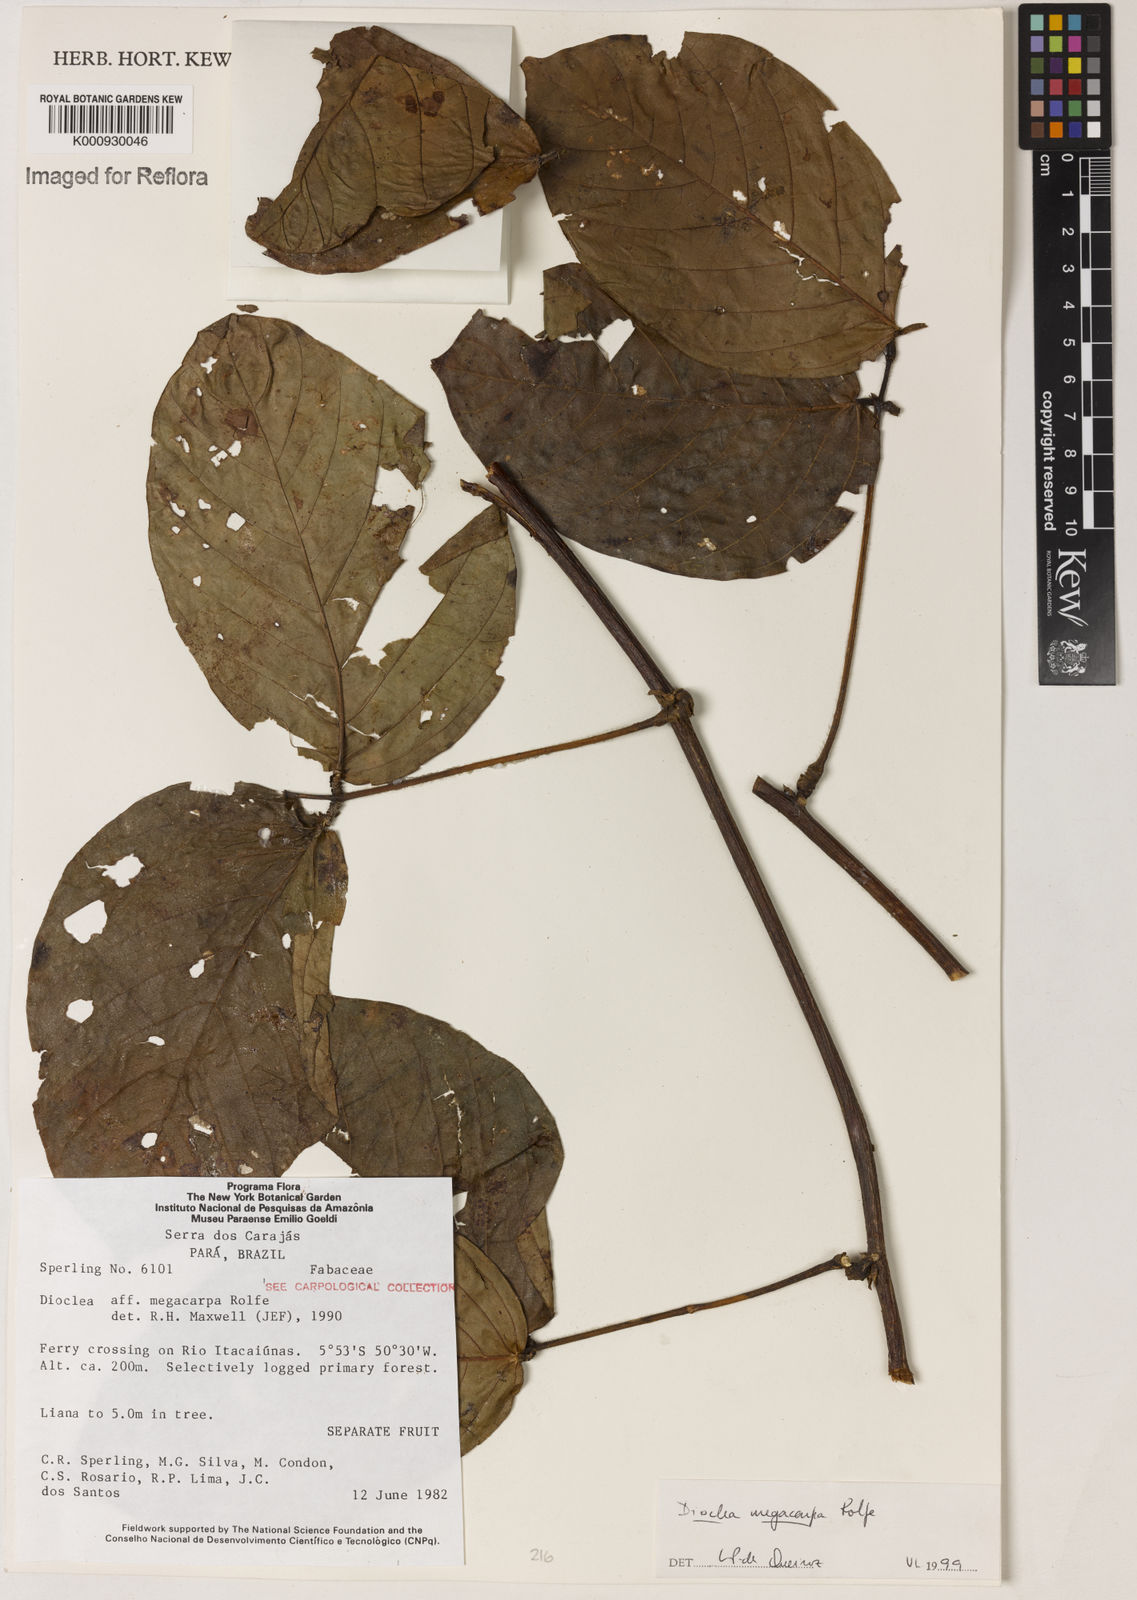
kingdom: Plantae
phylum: Tracheophyta
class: Magnoliopsida
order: Fabales
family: Fabaceae
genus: Macropsychanthus
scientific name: Macropsychanthus megacarpus
